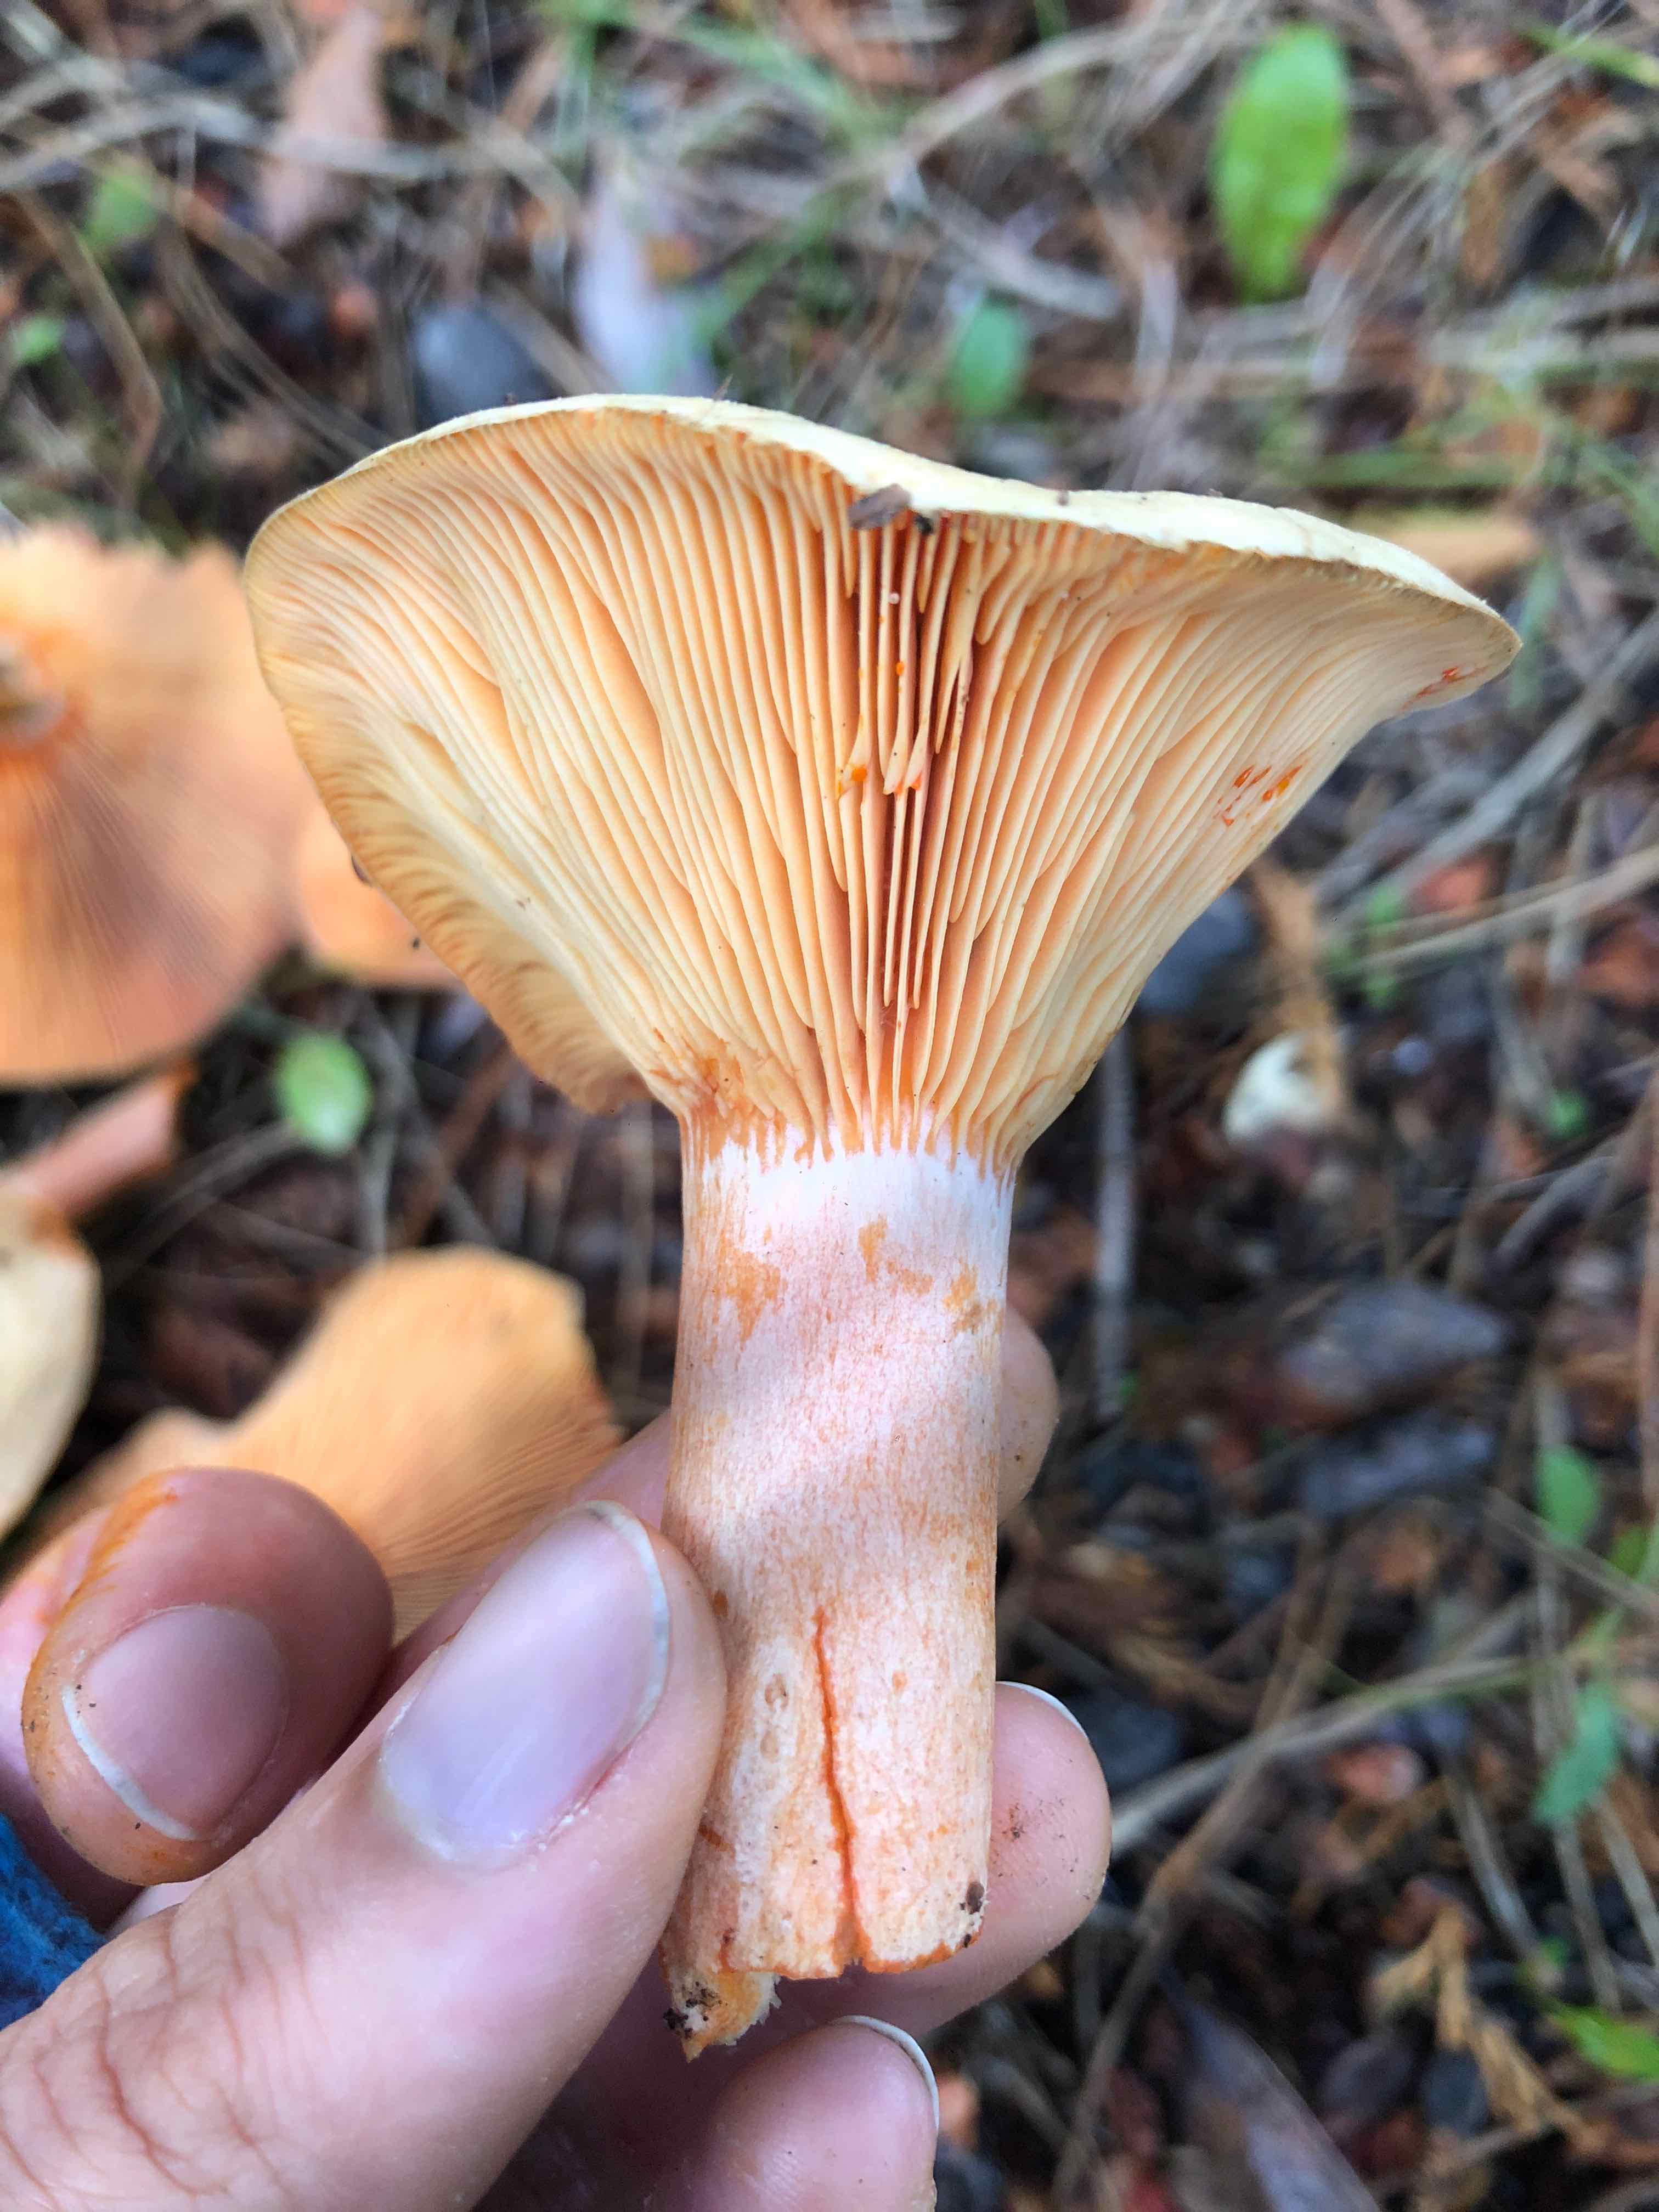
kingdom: Fungi
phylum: Basidiomycota
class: Agaricomycetes
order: Russulales
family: Russulaceae
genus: Lactarius
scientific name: Lactarius deterrimus
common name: gran-mælkehat
